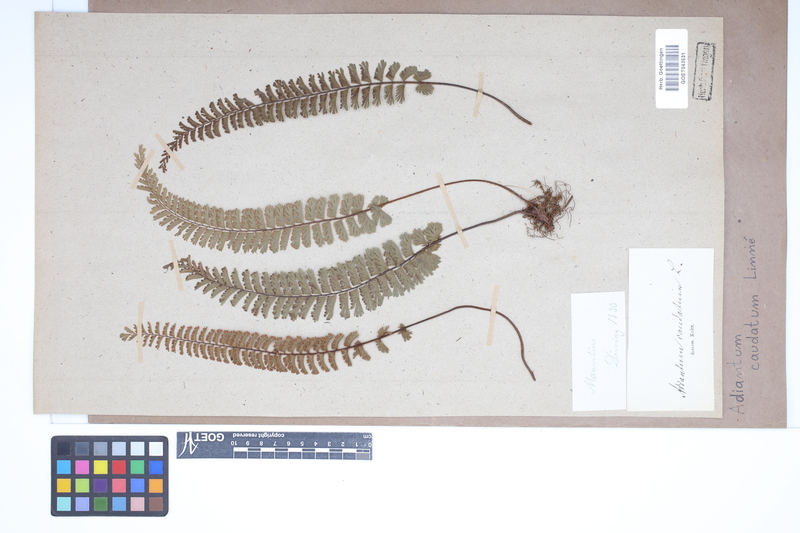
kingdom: Plantae
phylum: Tracheophyta
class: Polypodiopsida
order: Polypodiales
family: Pteridaceae
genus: Adiantum
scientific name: Adiantum caudatum
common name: Tailed maidenhair
